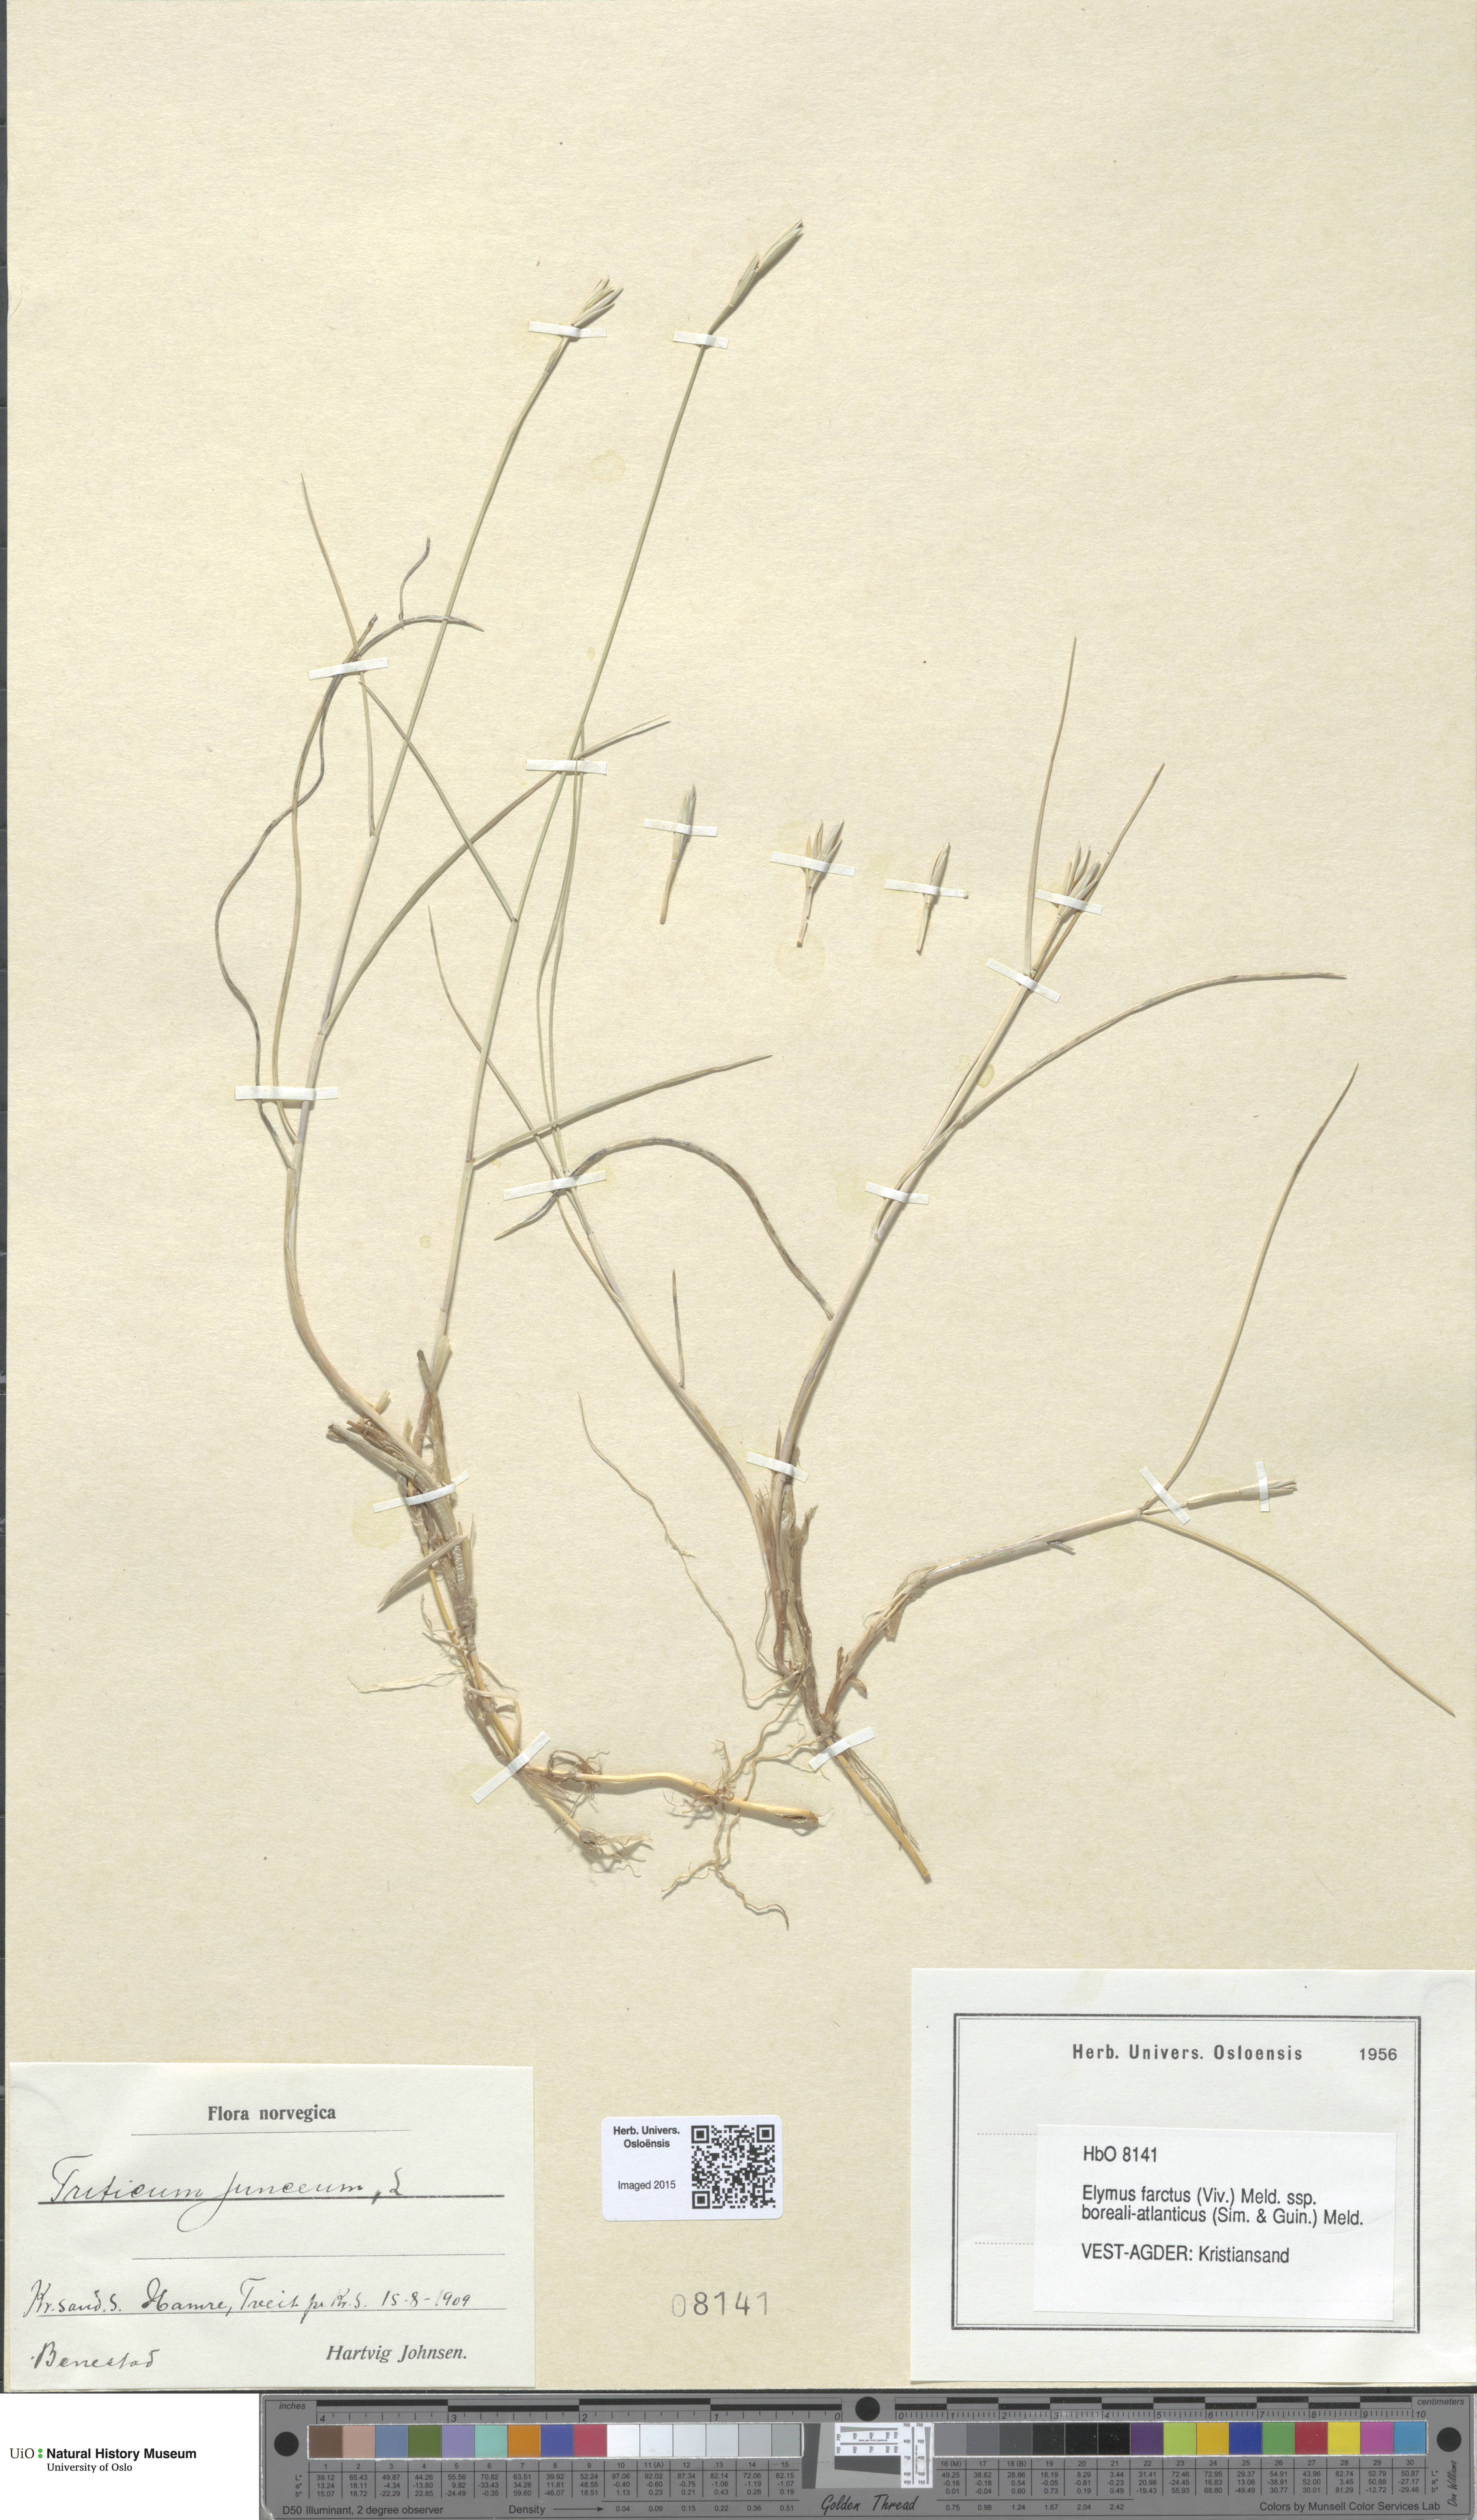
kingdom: Plantae
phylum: Tracheophyta
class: Liliopsida
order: Poales
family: Poaceae
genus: Thinopyrum
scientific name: Thinopyrum junceiforme
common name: Sea couch
